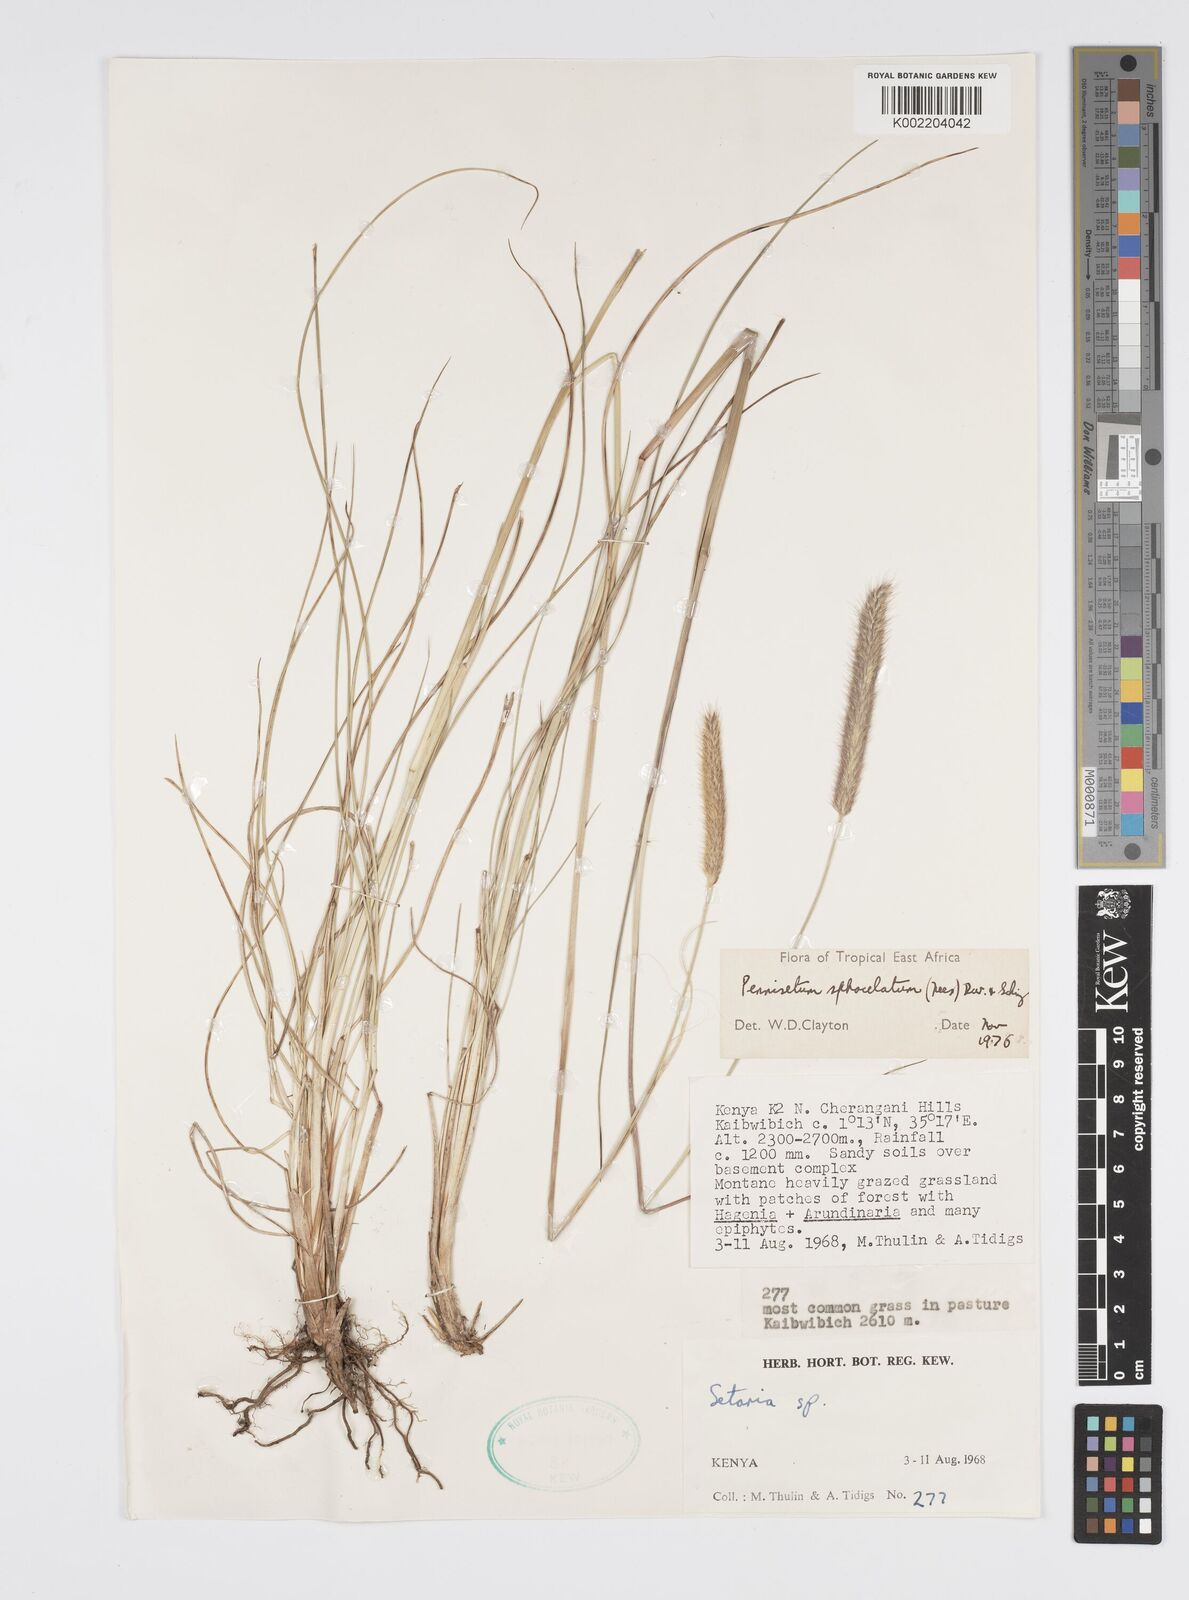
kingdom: Plantae
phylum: Tracheophyta
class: Liliopsida
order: Poales
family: Poaceae
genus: Cenchrus
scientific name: Cenchrus sphacelatus
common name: Bulgras
